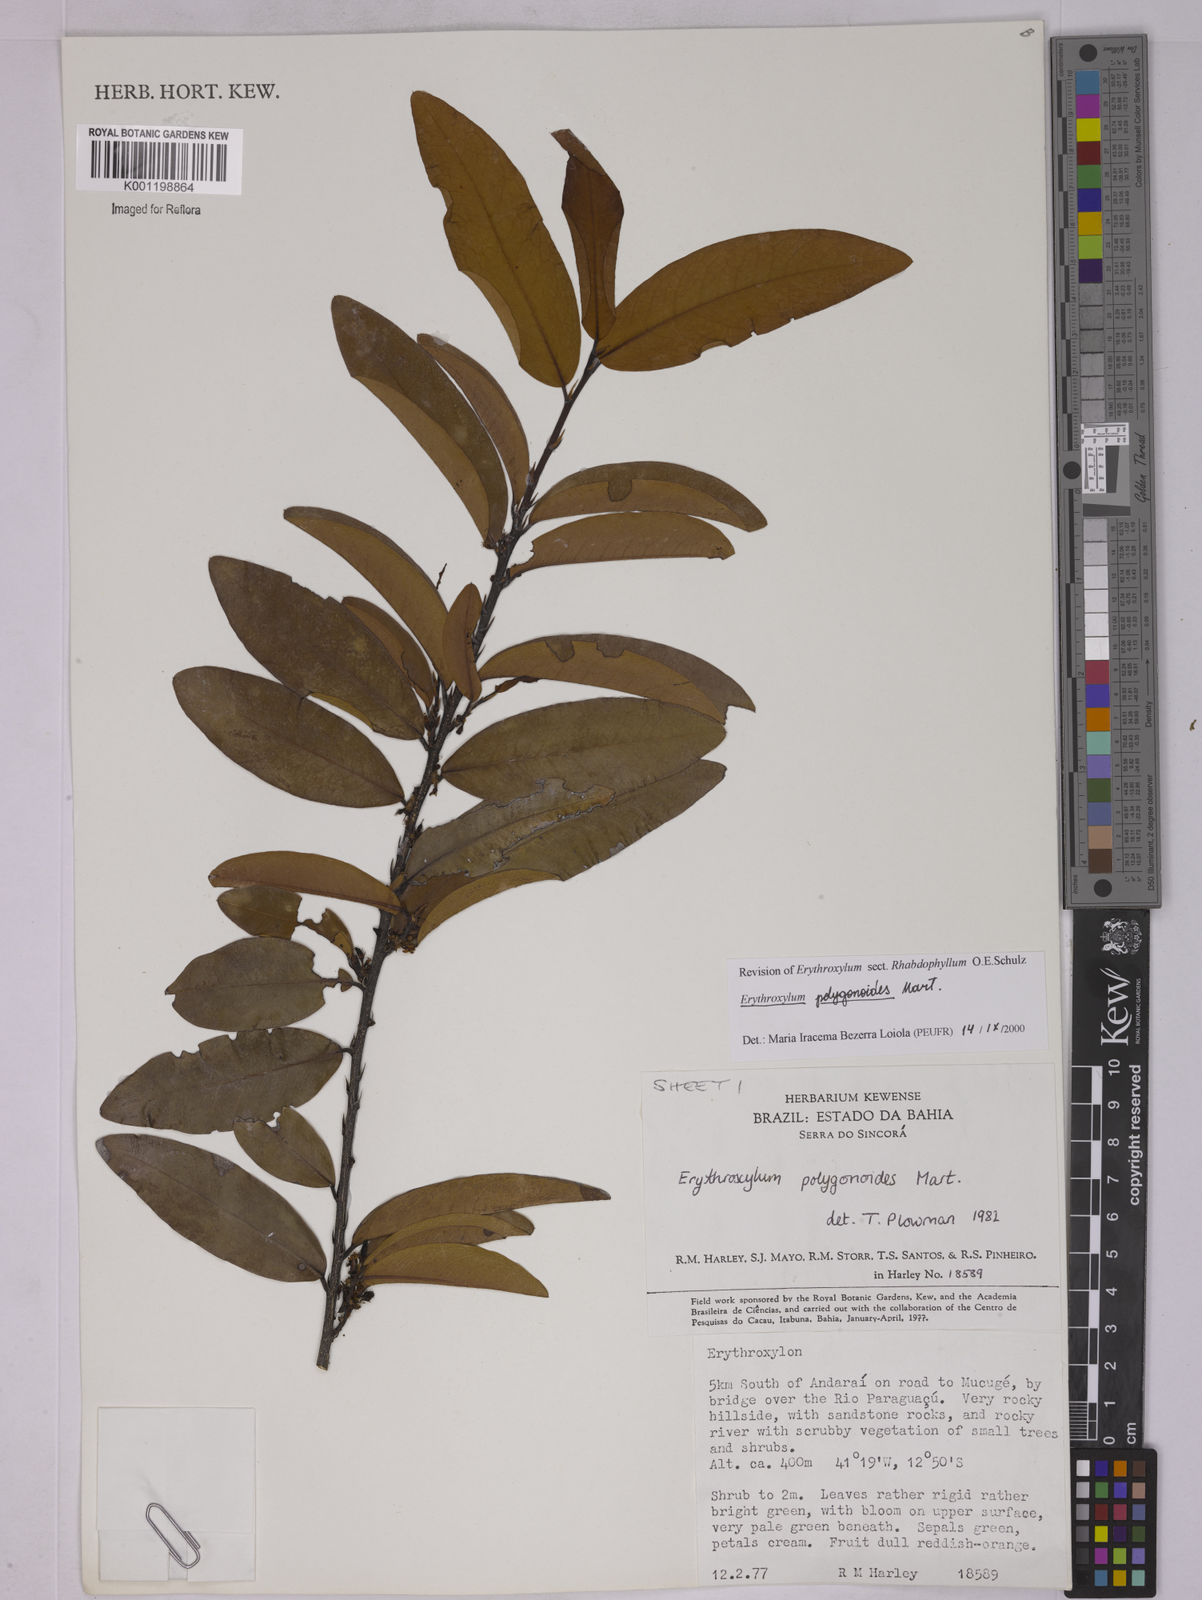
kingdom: Plantae
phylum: Tracheophyta
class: Magnoliopsida
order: Malpighiales
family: Erythroxylaceae
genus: Erythroxylum
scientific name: Erythroxylum polygonoides
